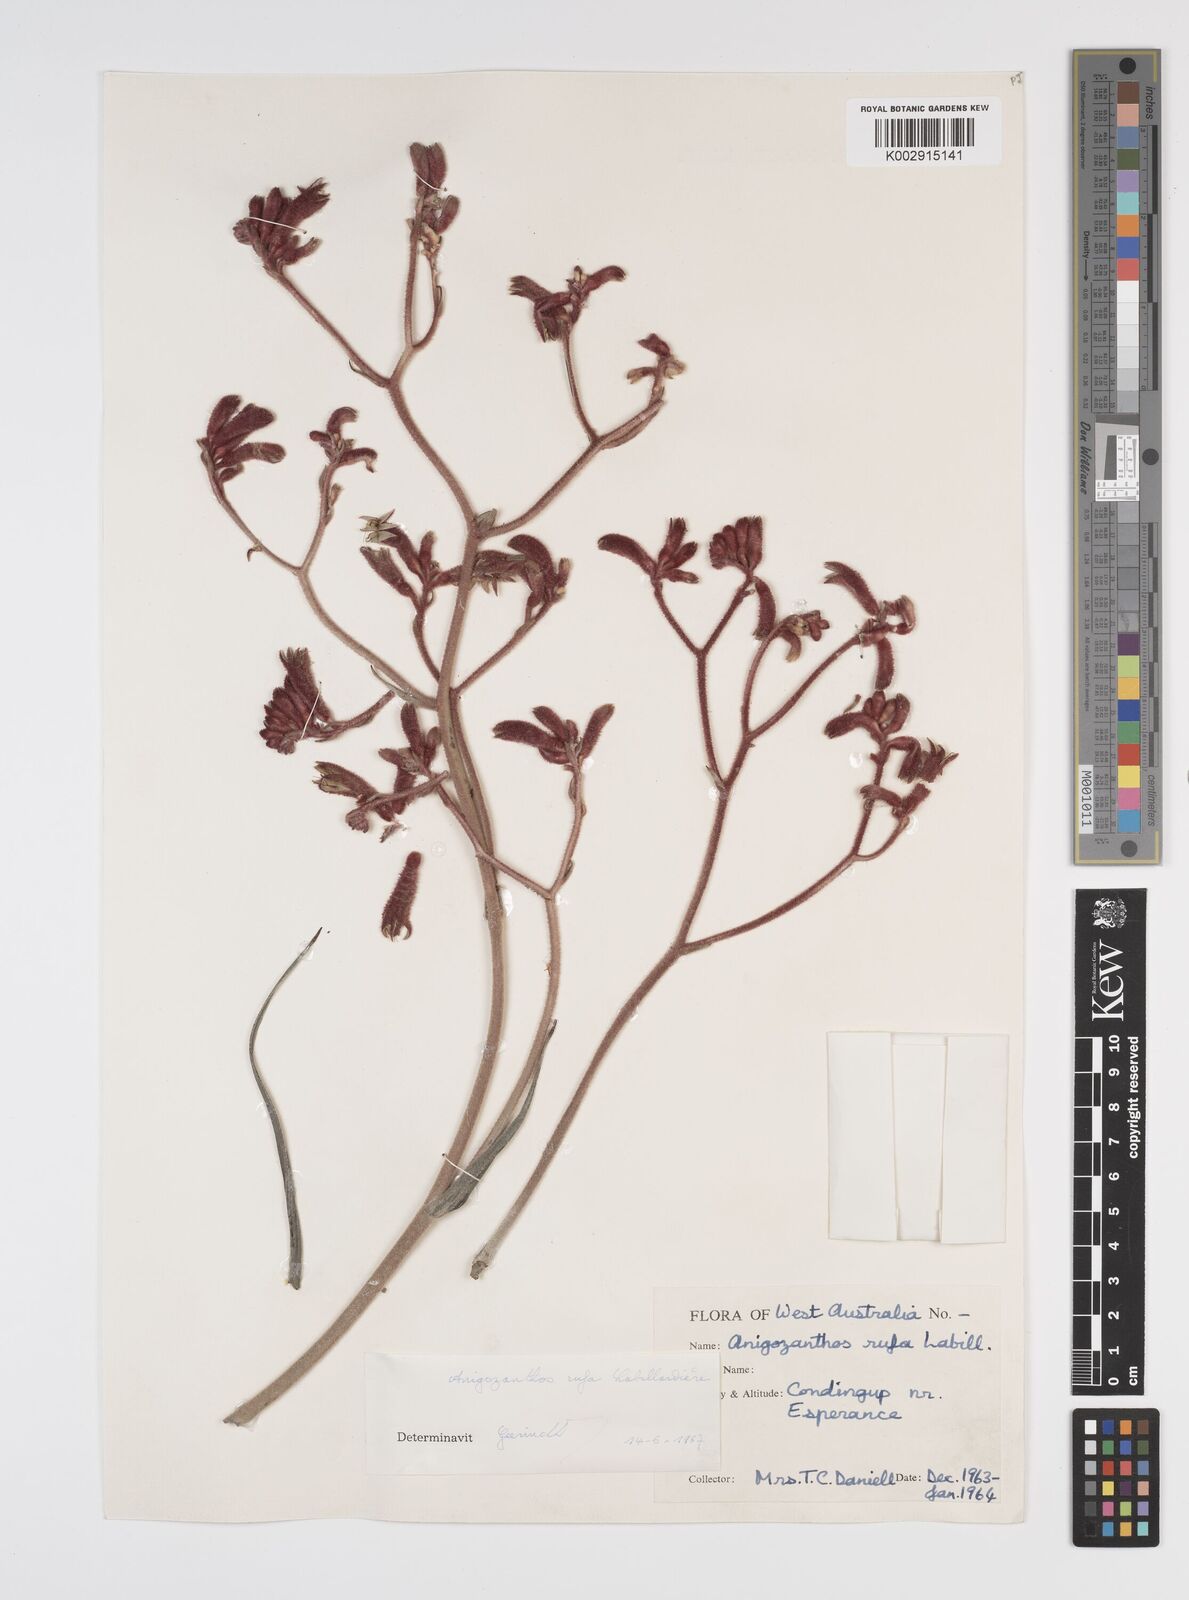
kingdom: Plantae
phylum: Tracheophyta
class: Liliopsida
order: Commelinales
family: Haemodoraceae
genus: Anigozanthos
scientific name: Anigozanthos rufus
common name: Red kangaroo-paw
